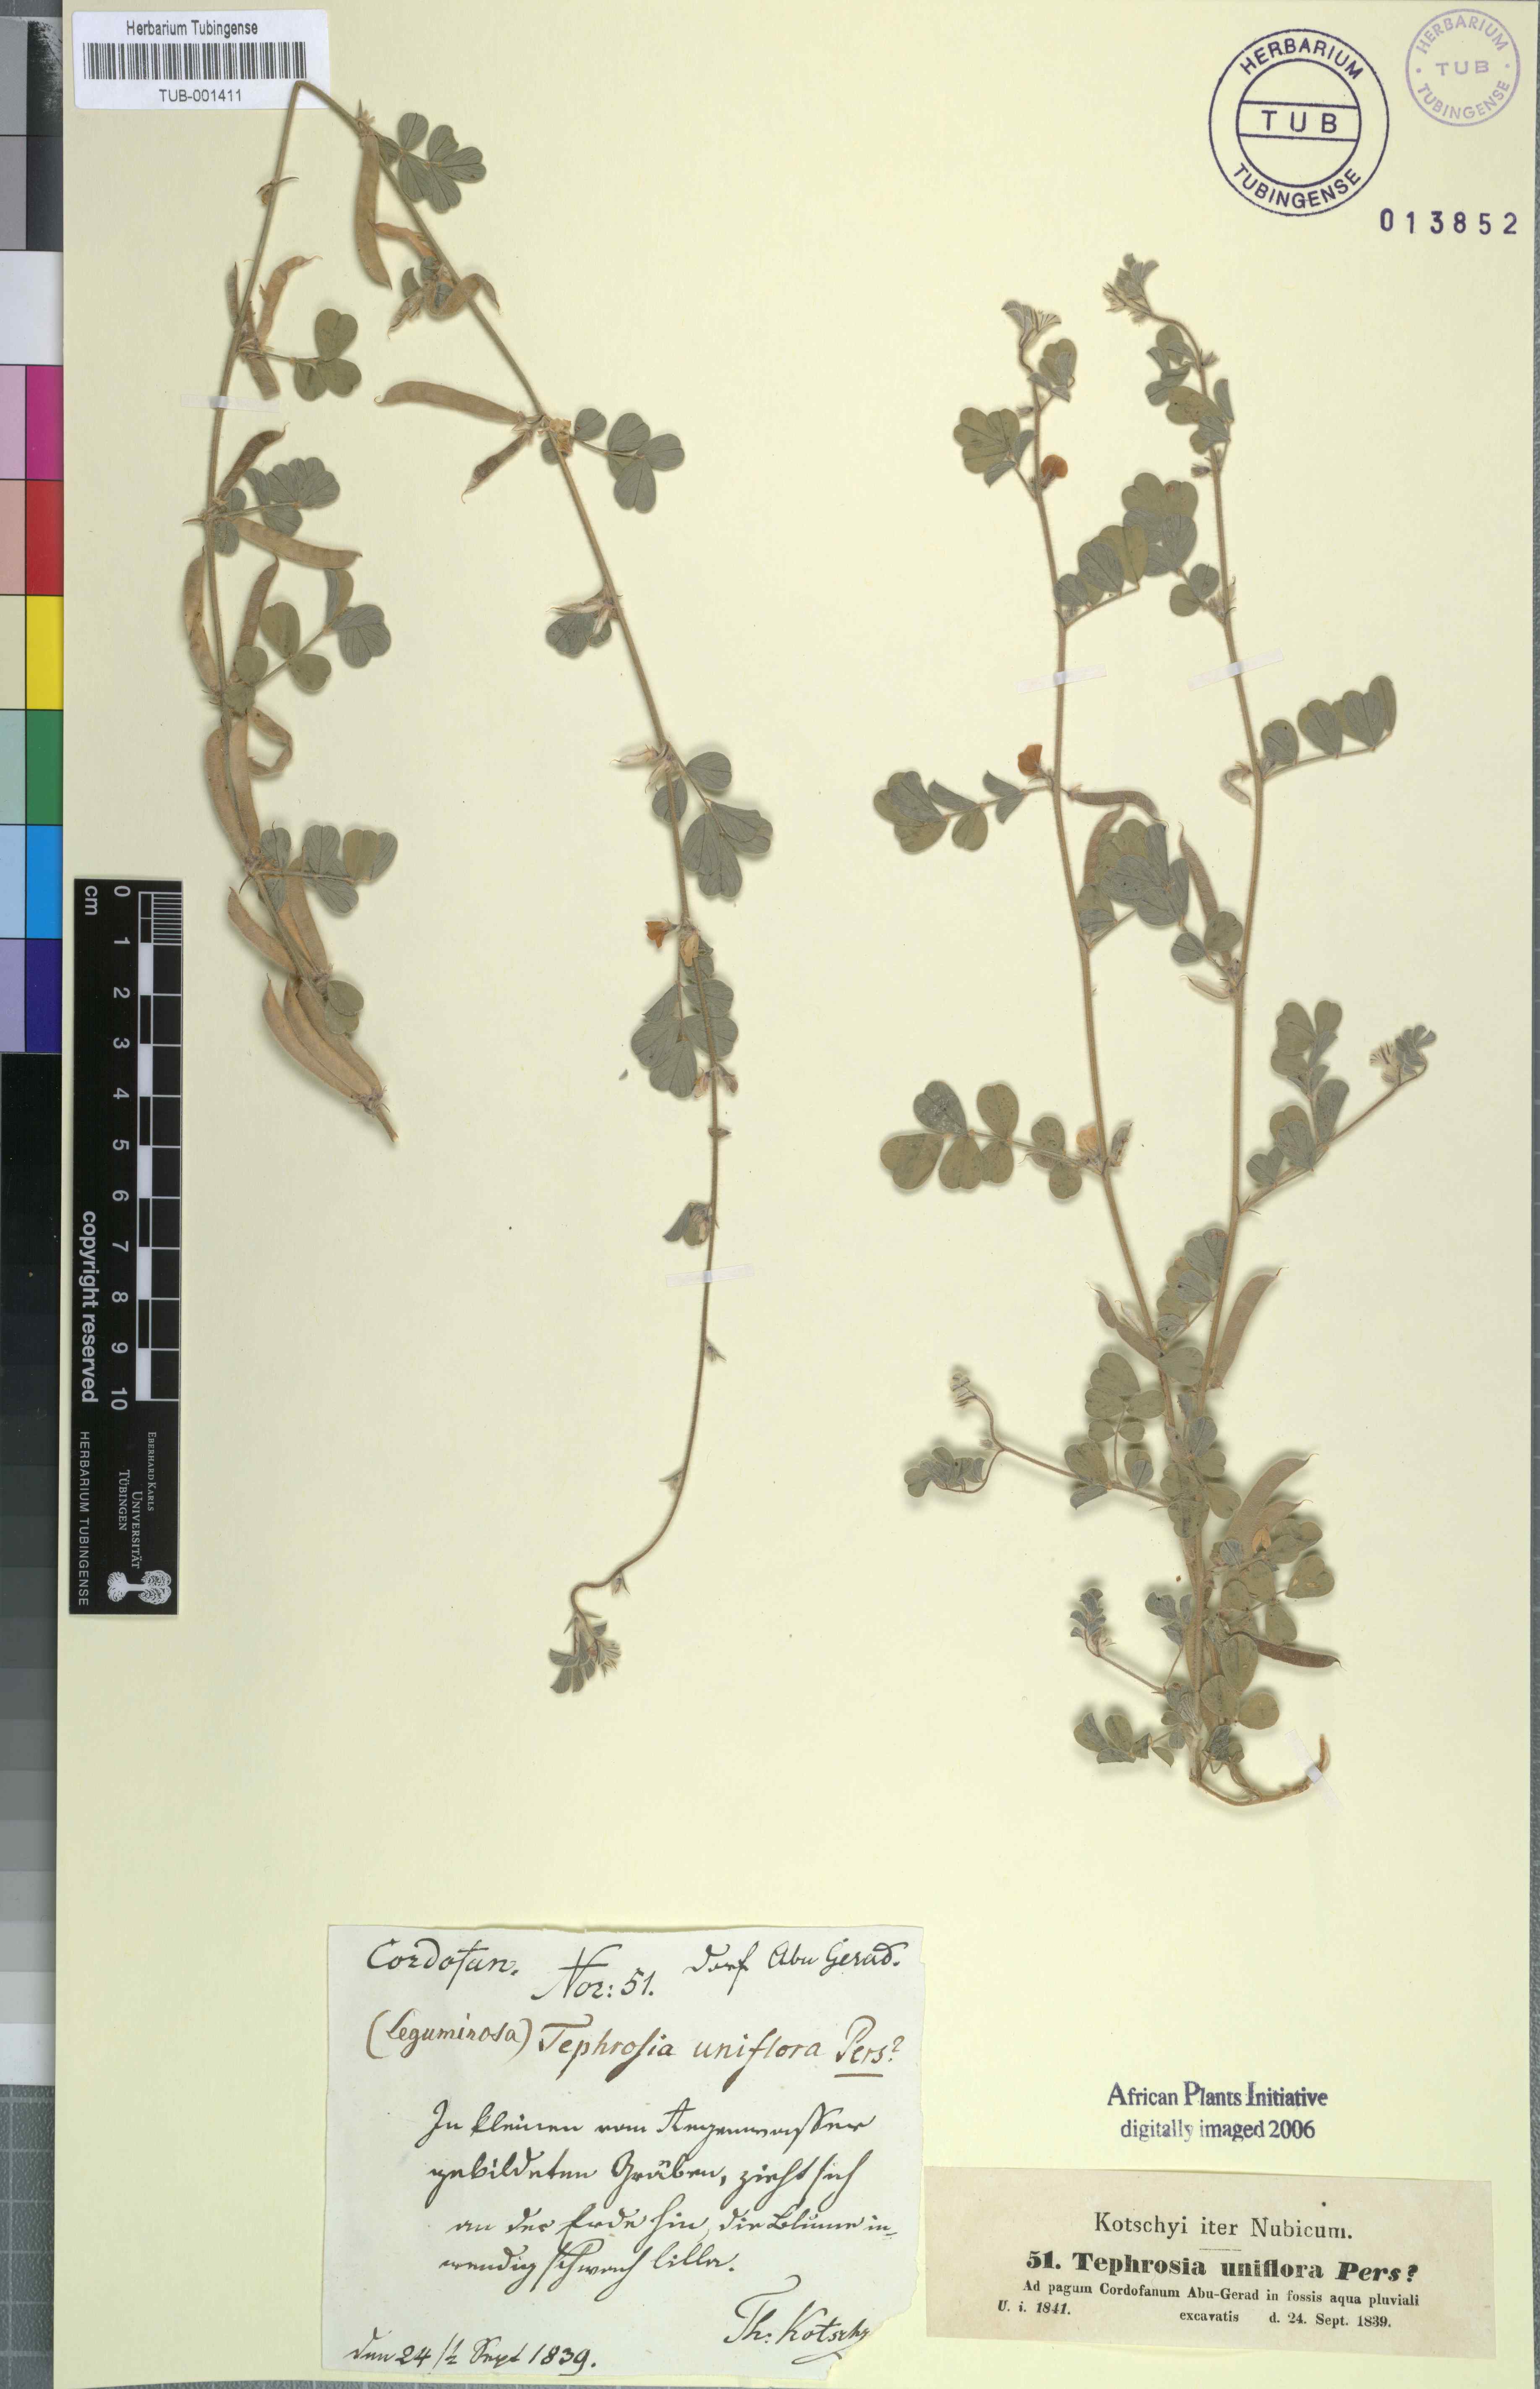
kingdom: Plantae
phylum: Tracheophyta
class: Magnoliopsida
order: Fabales
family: Fabaceae
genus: Tephrosia
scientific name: Tephrosia uniflora
